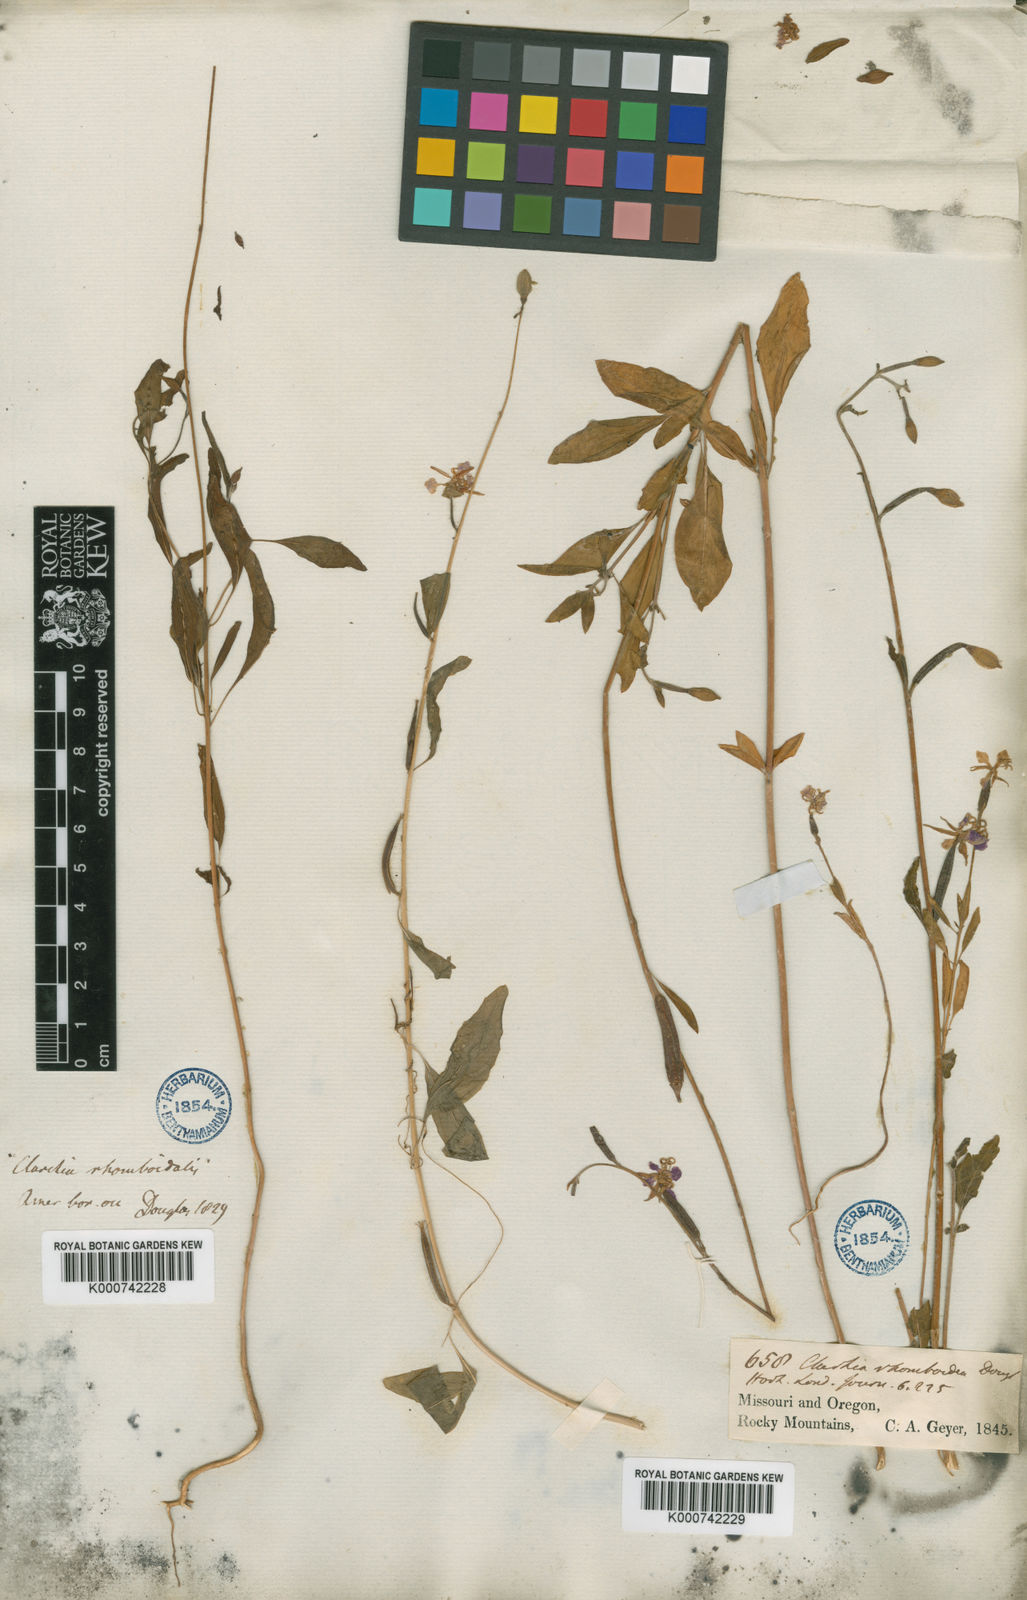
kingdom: Plantae
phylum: Tracheophyta
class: Magnoliopsida
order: Myrtales
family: Onagraceae
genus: Clarkia
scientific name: Clarkia rhomboidea
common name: Broadleaf clarkia
